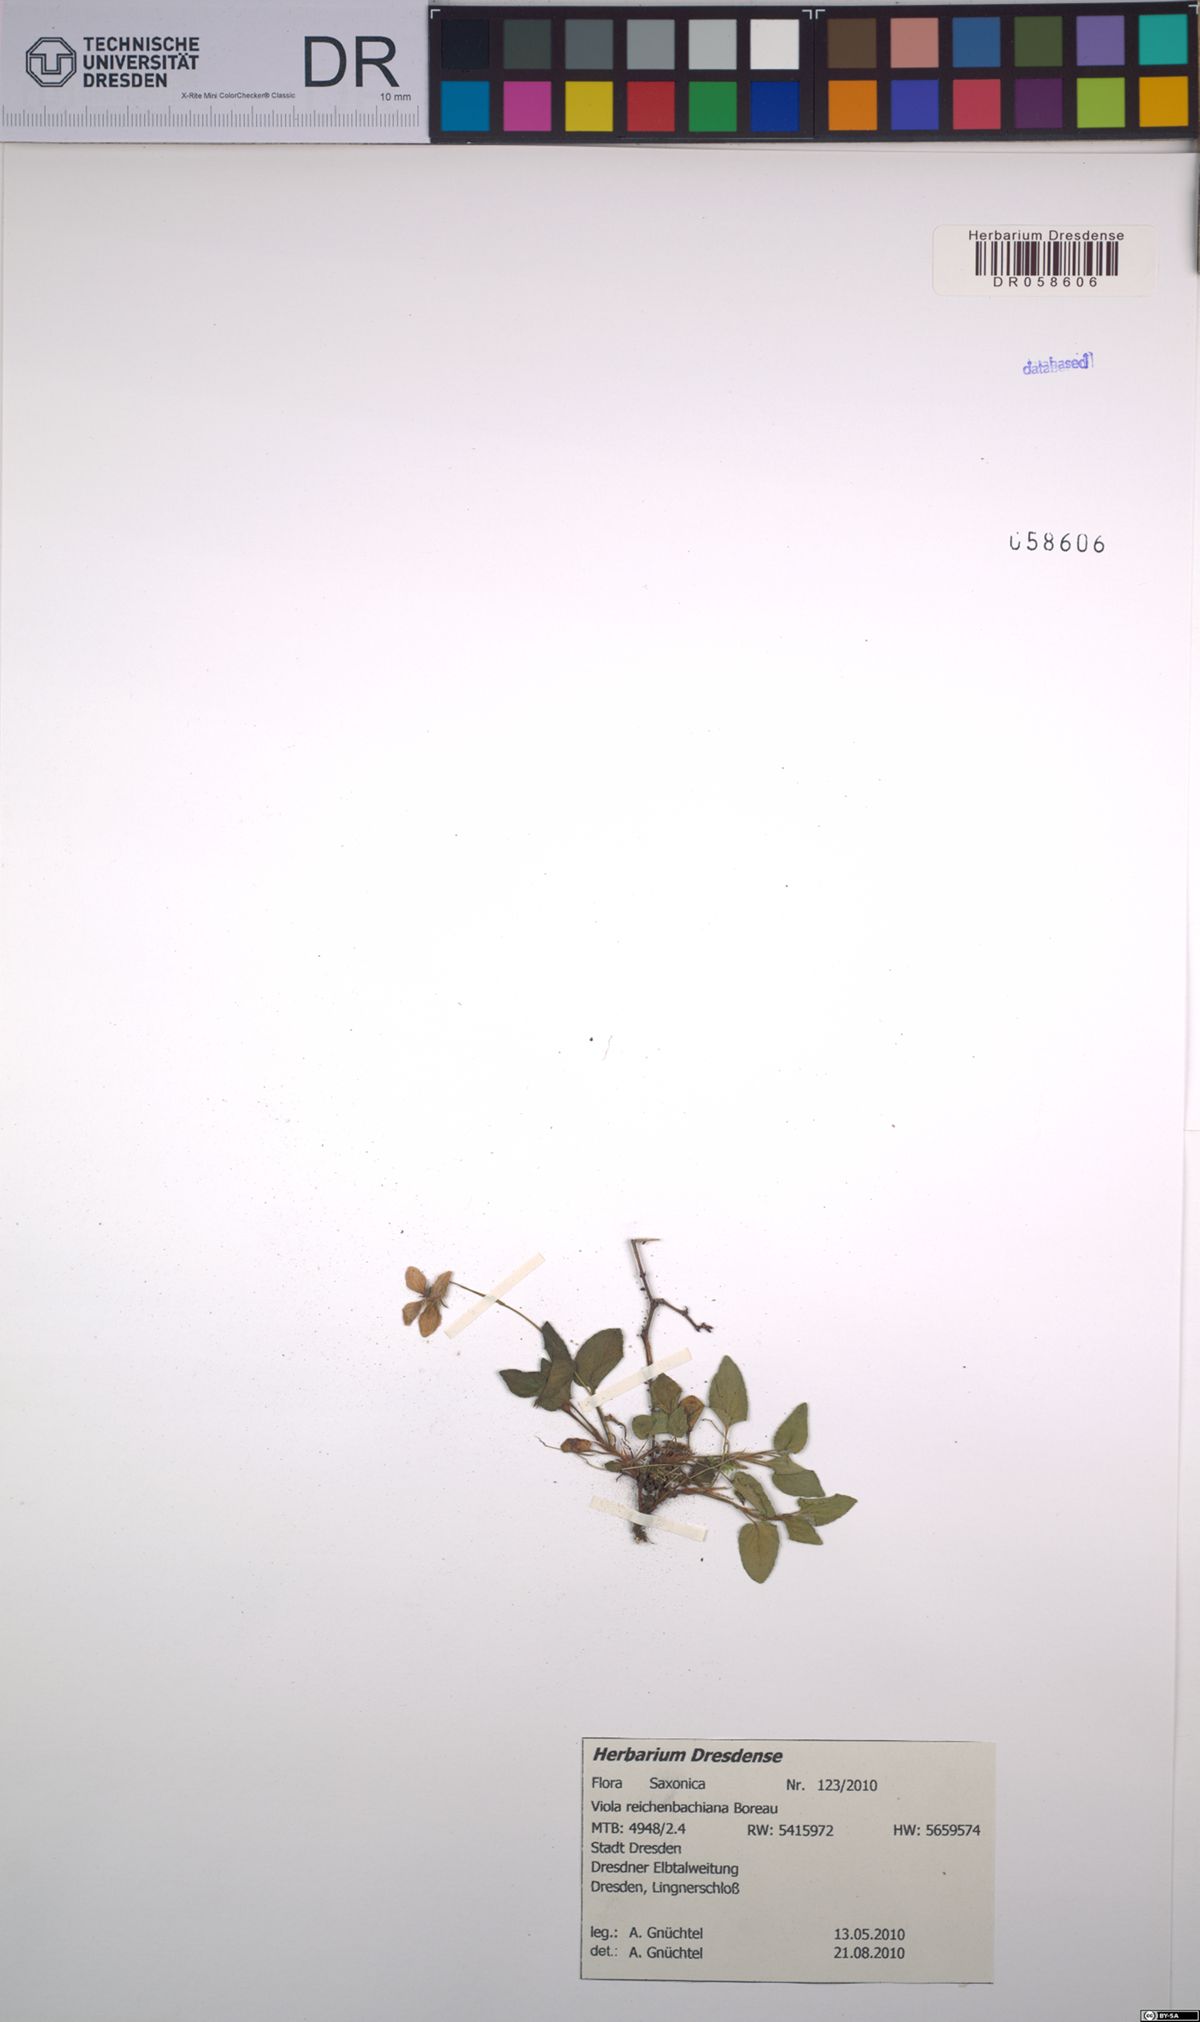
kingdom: Plantae
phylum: Tracheophyta
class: Magnoliopsida
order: Malpighiales
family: Violaceae
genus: Viola
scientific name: Viola reichenbachiana
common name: Early dog-violet
